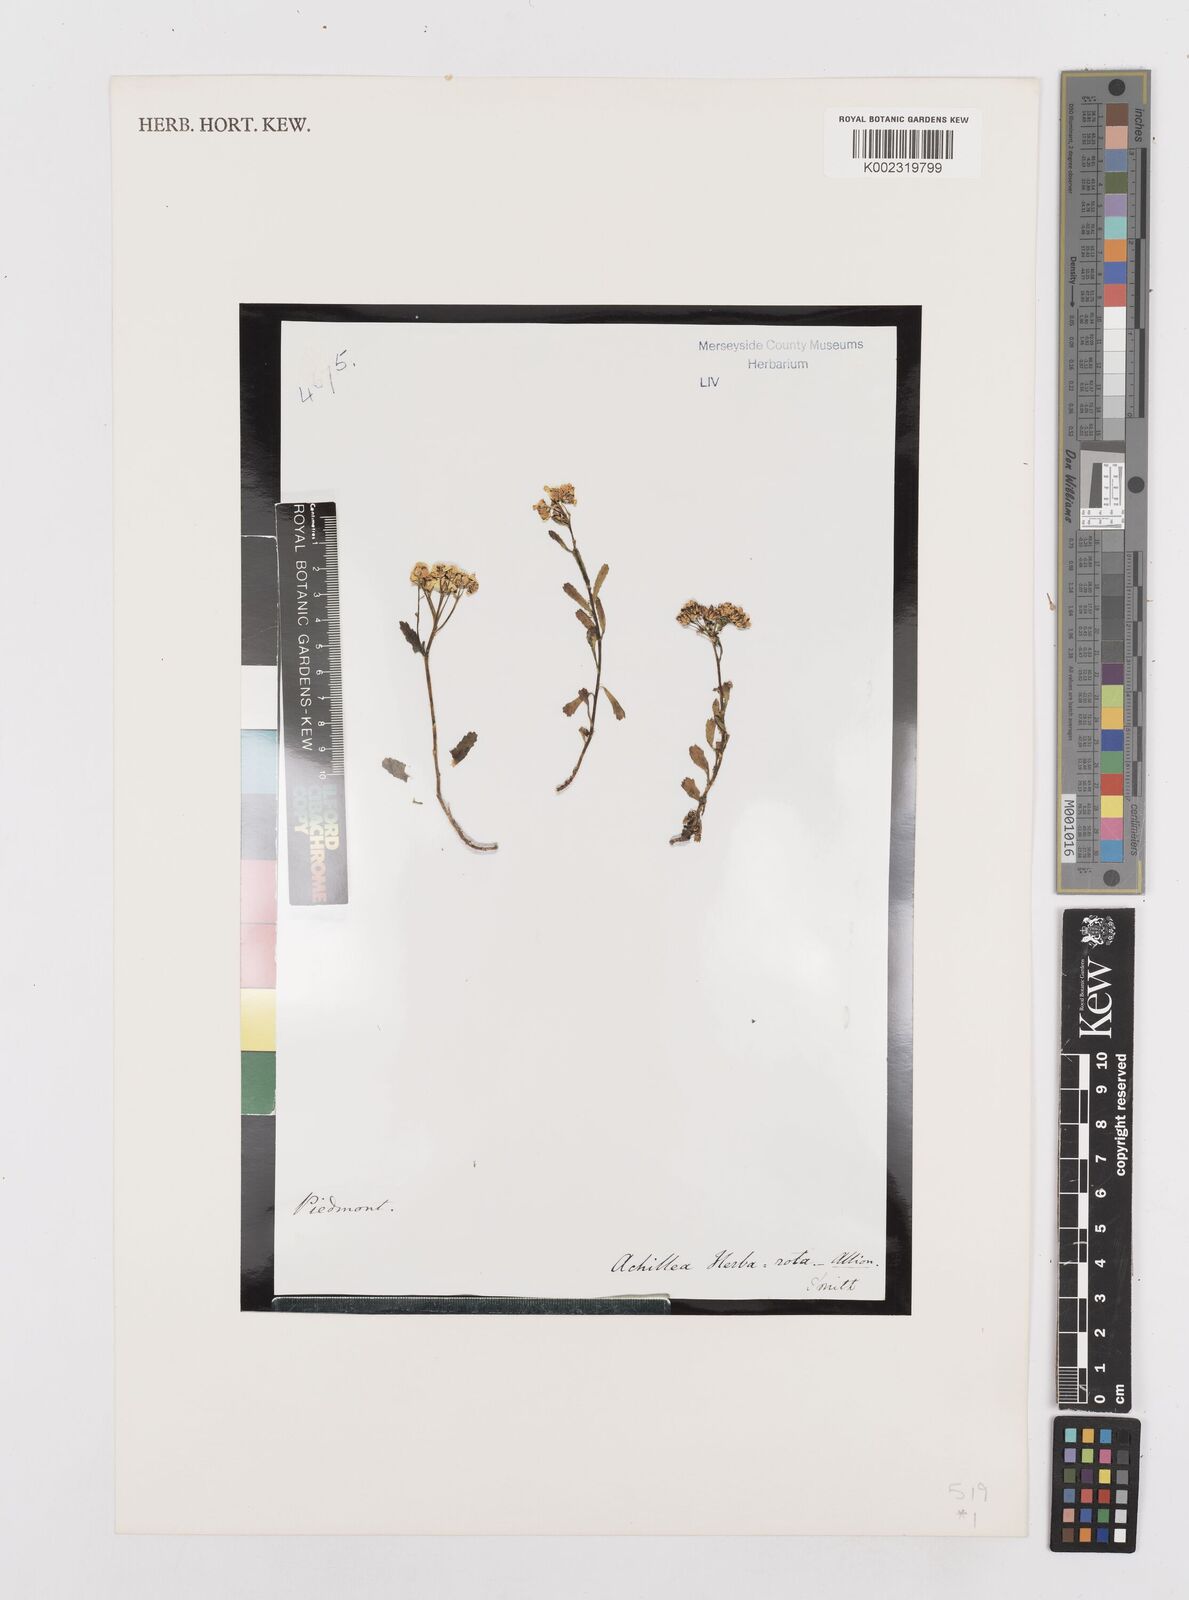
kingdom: Plantae
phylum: Tracheophyta
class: Magnoliopsida
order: Asterales
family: Asteraceae
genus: Achillea
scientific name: Achillea erba-rotta
